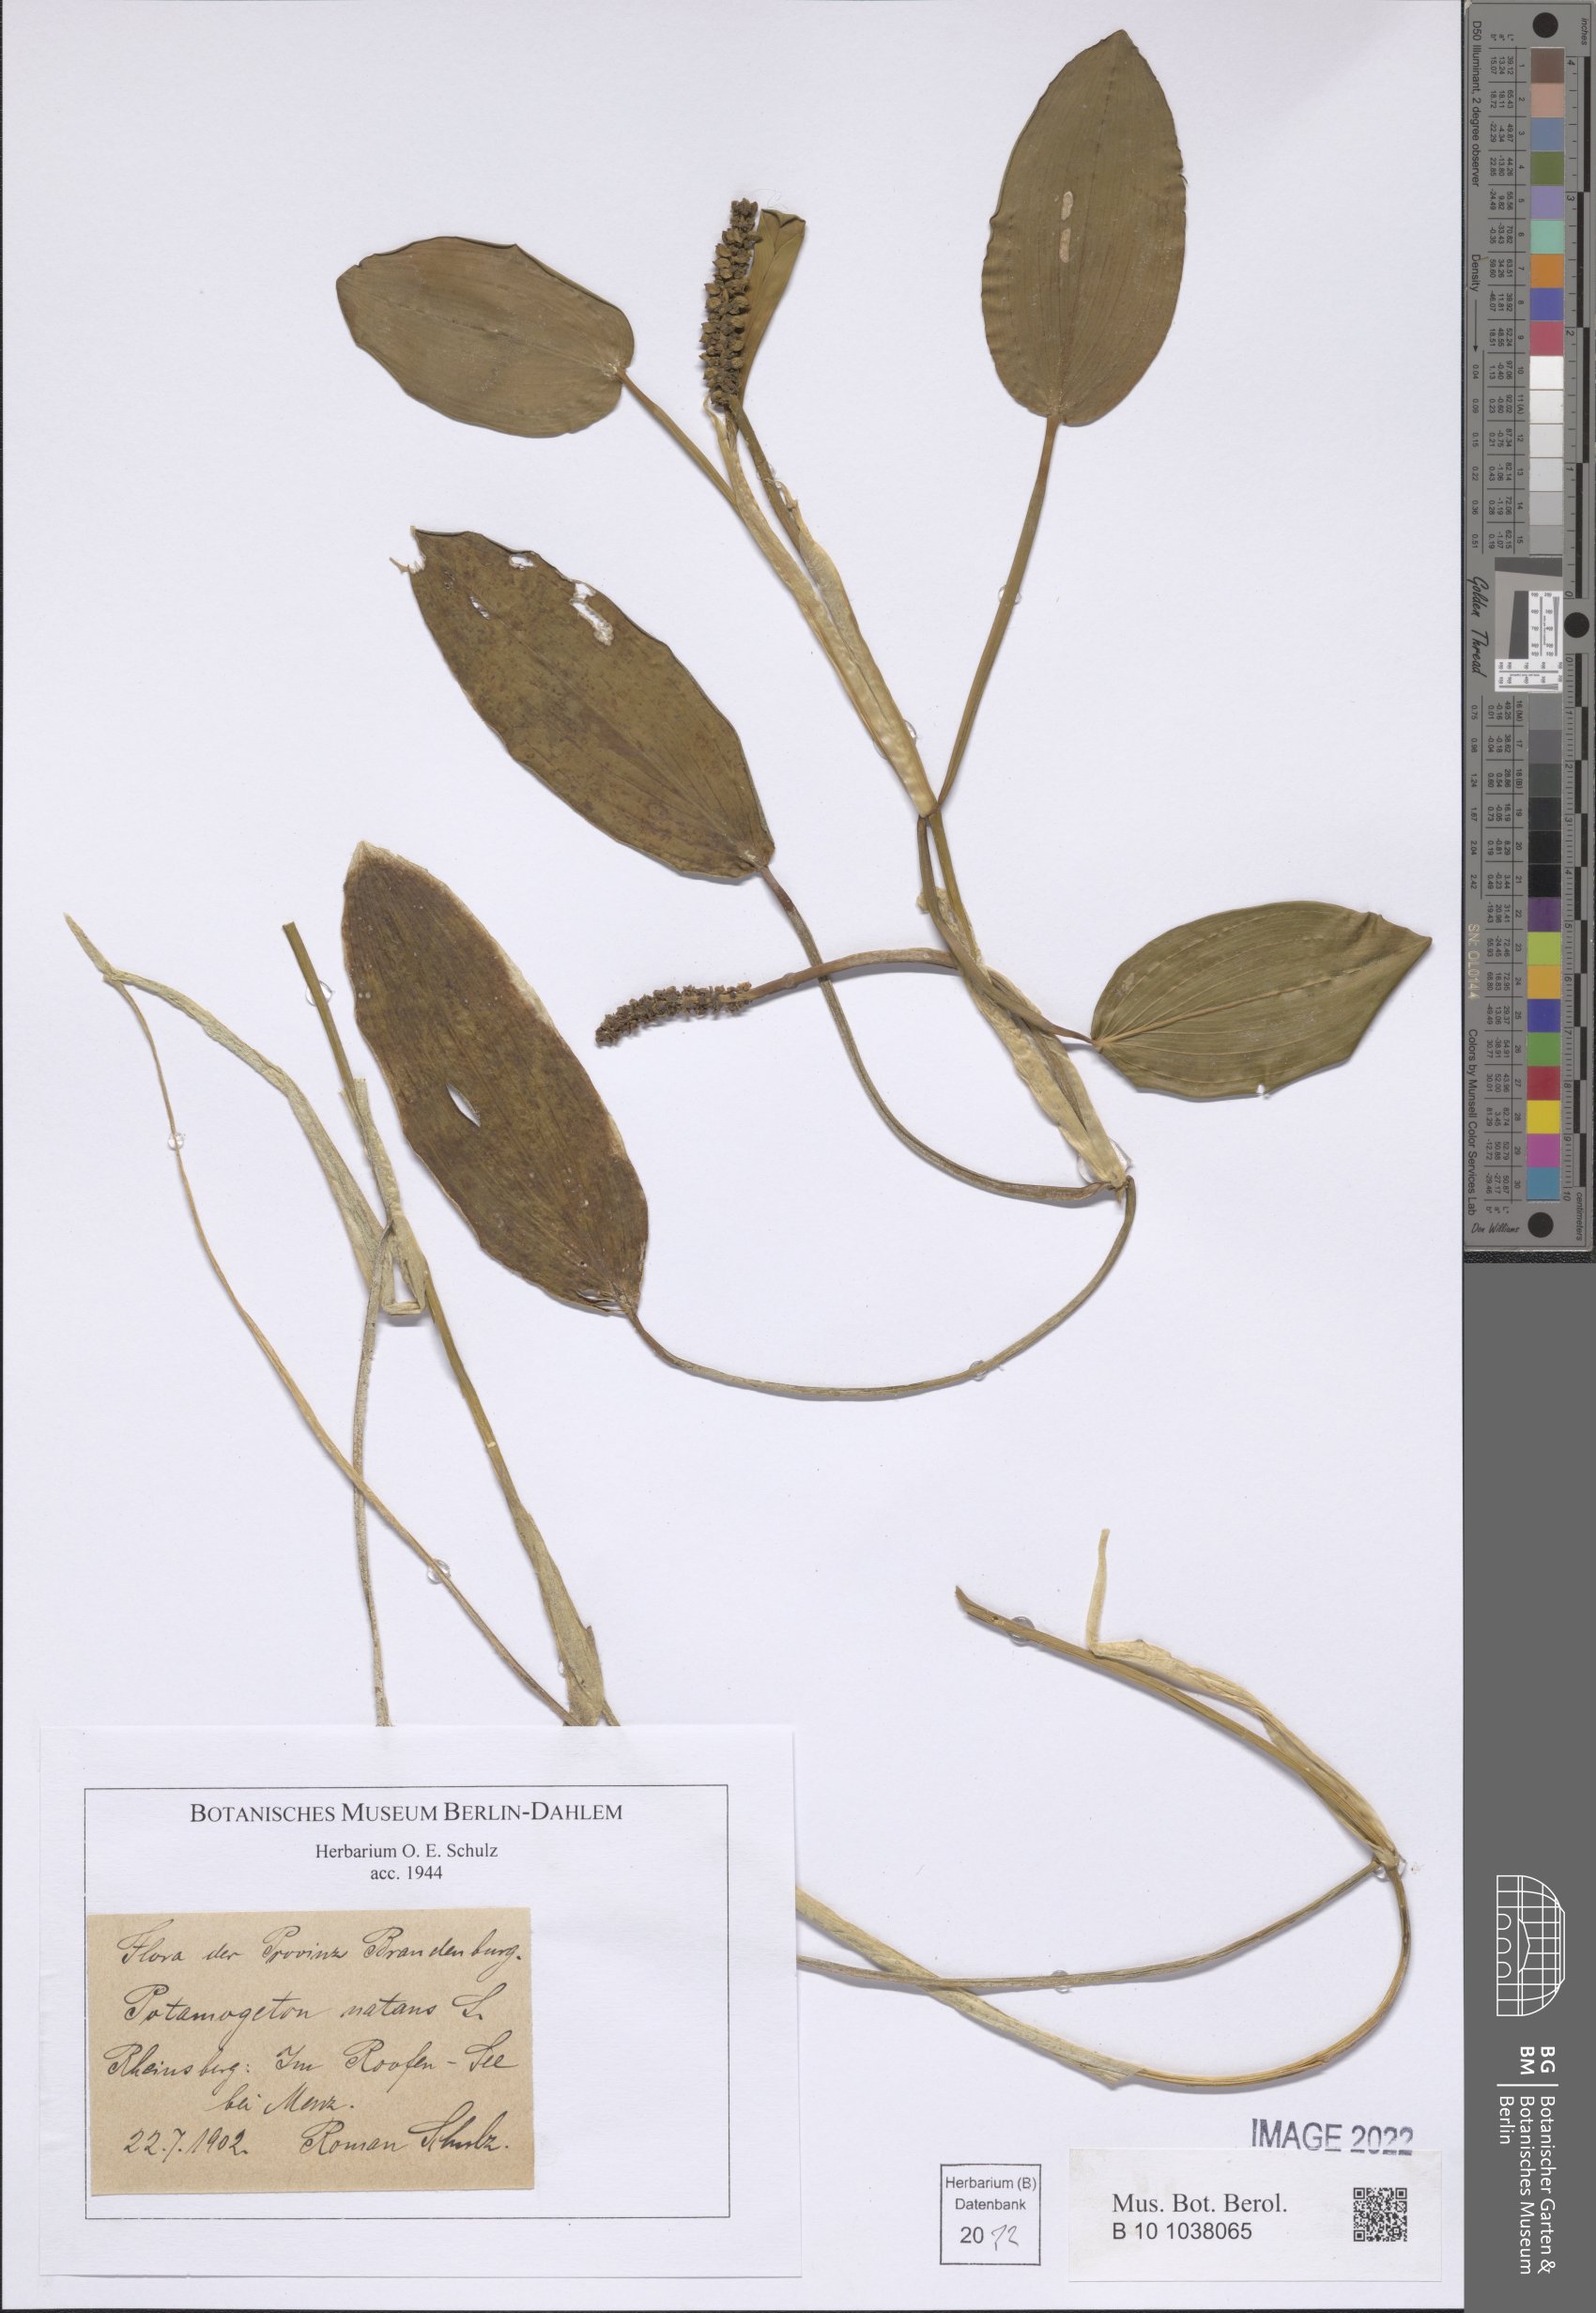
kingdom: Plantae
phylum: Tracheophyta
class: Liliopsida
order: Alismatales
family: Potamogetonaceae
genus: Potamogeton
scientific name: Potamogeton natans
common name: Broad-leaved pondweed
